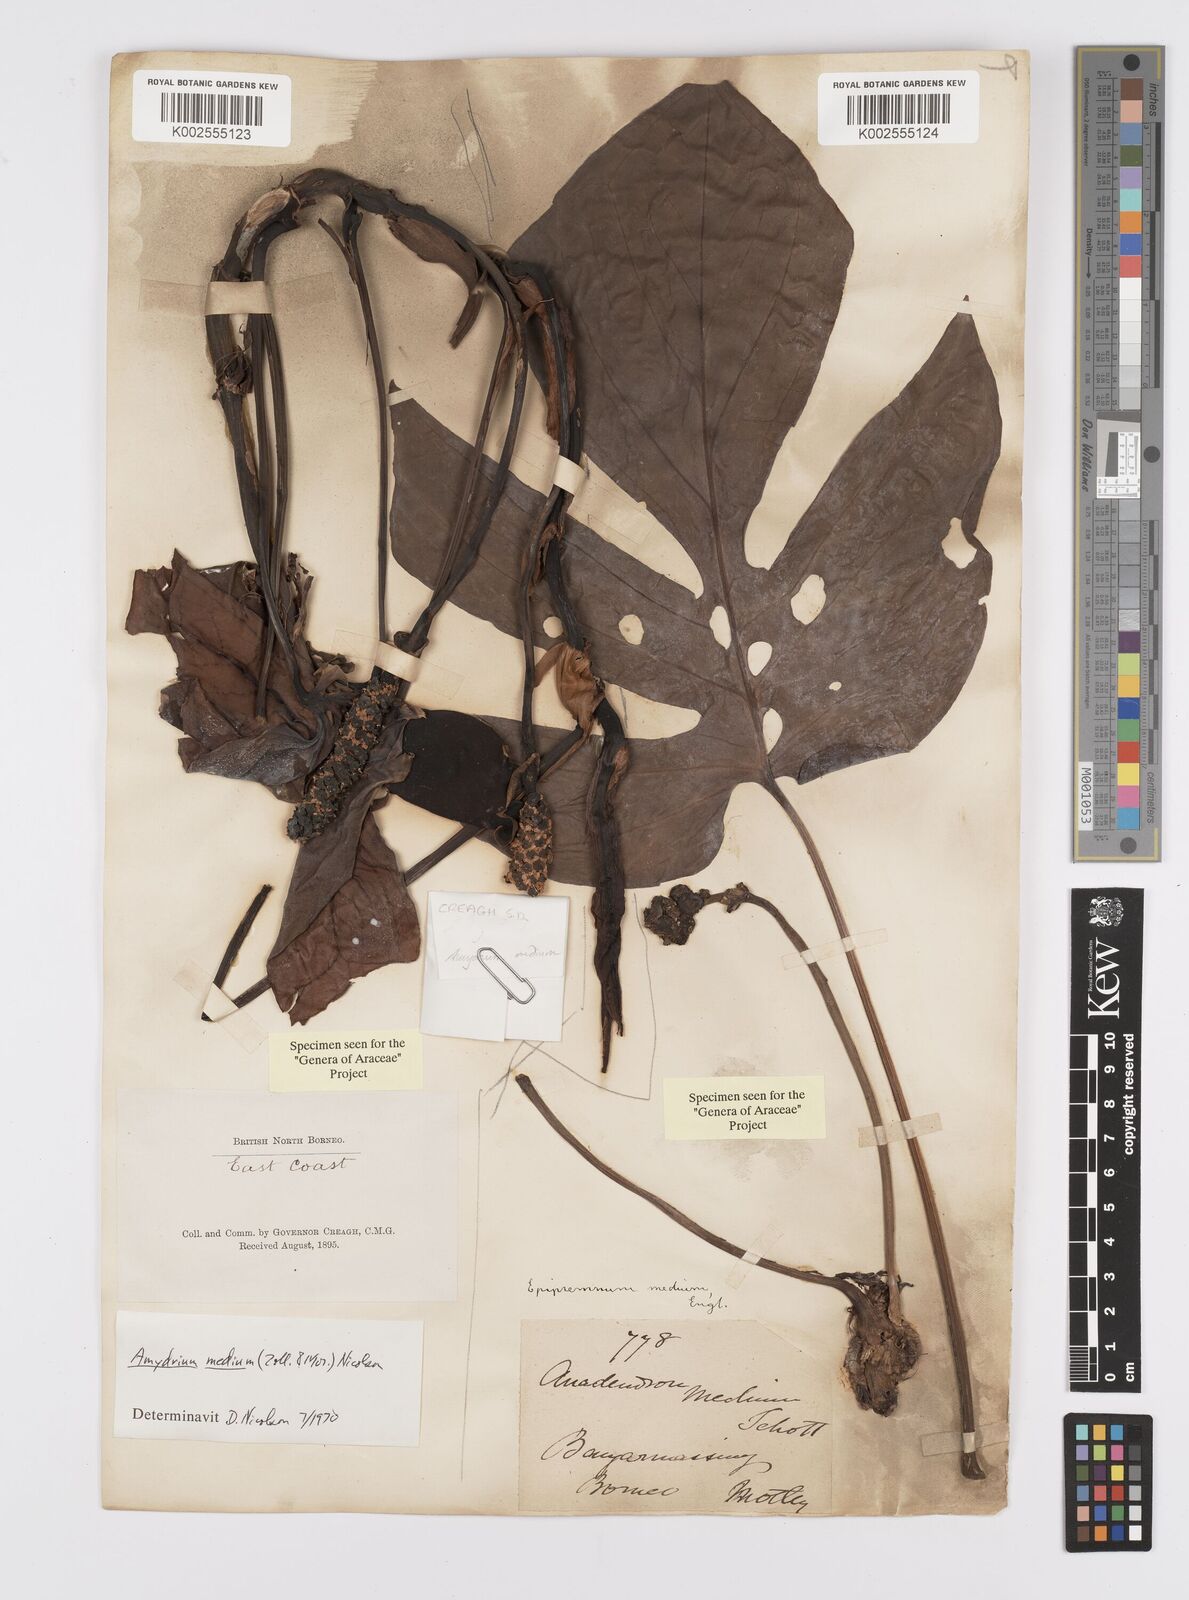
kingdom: Plantae
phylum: Tracheophyta
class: Liliopsida
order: Alismatales
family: Araceae
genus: Amydrium
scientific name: Amydrium medium
